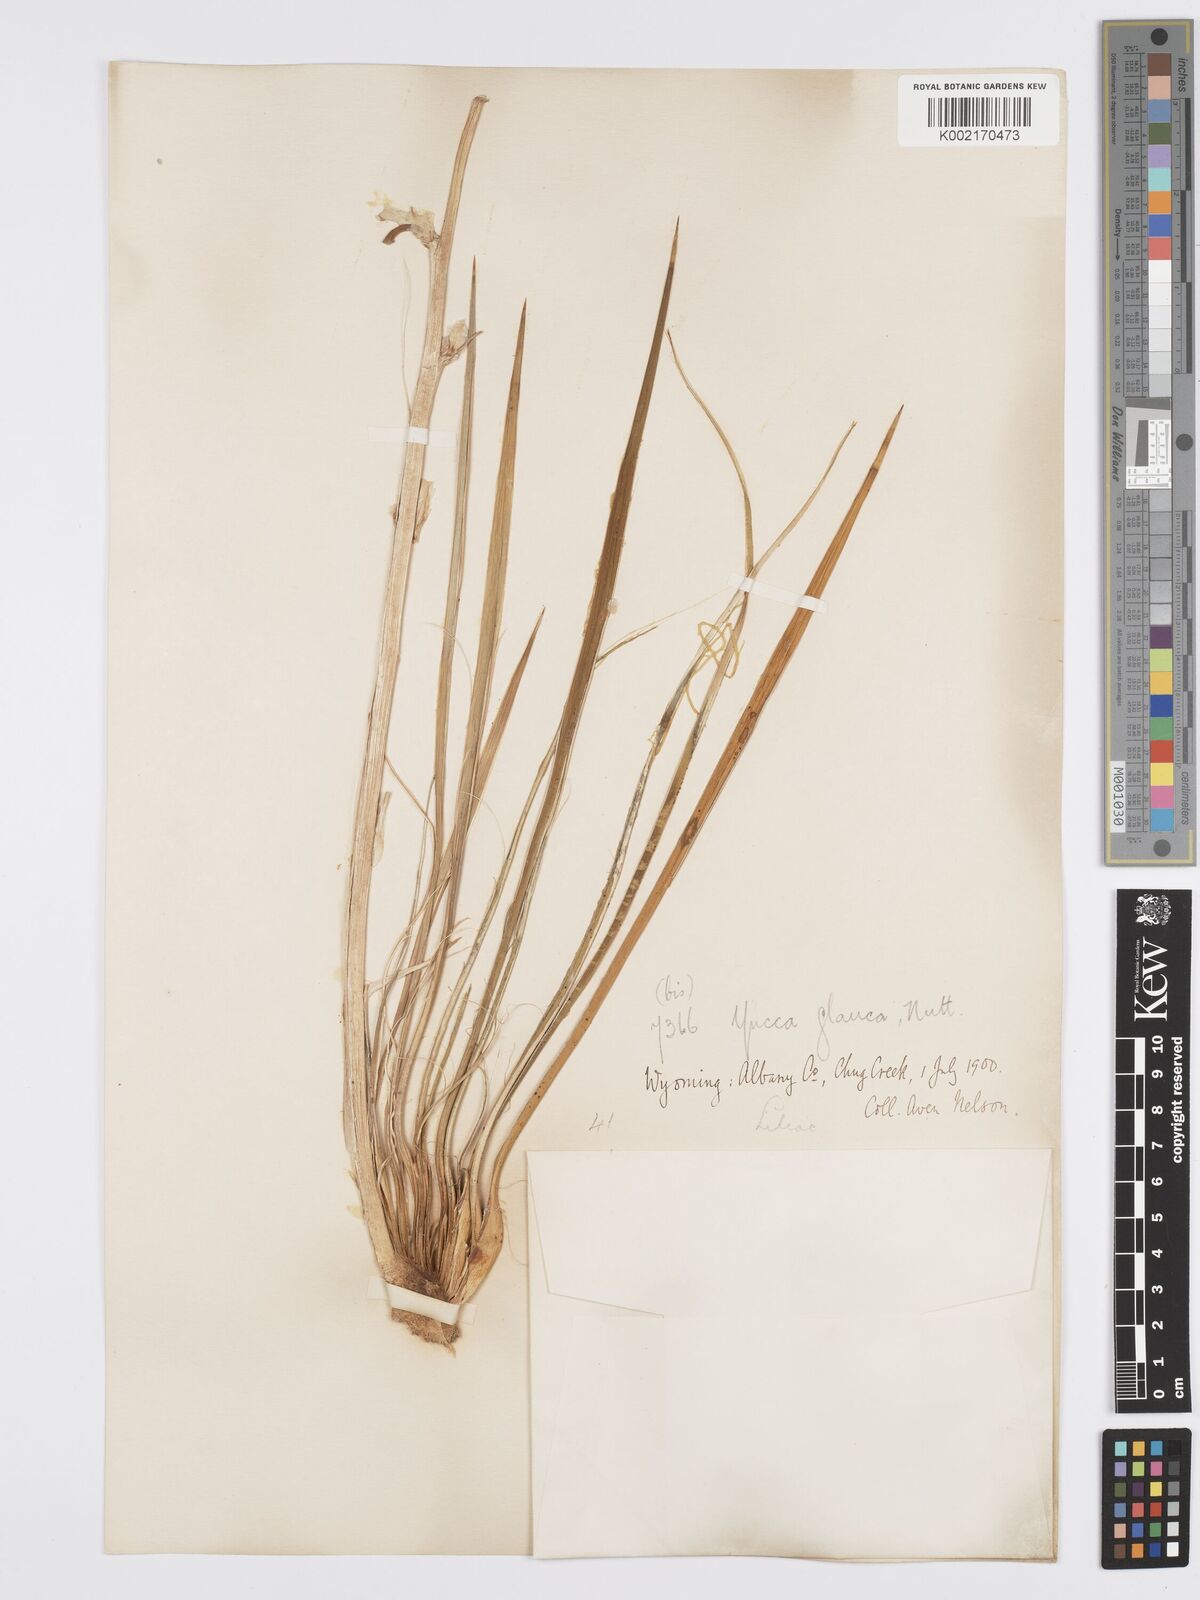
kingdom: Plantae
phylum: Tracheophyta
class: Liliopsida
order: Asparagales
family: Asparagaceae
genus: Yucca
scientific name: Yucca glauca
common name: Great plains yucca
